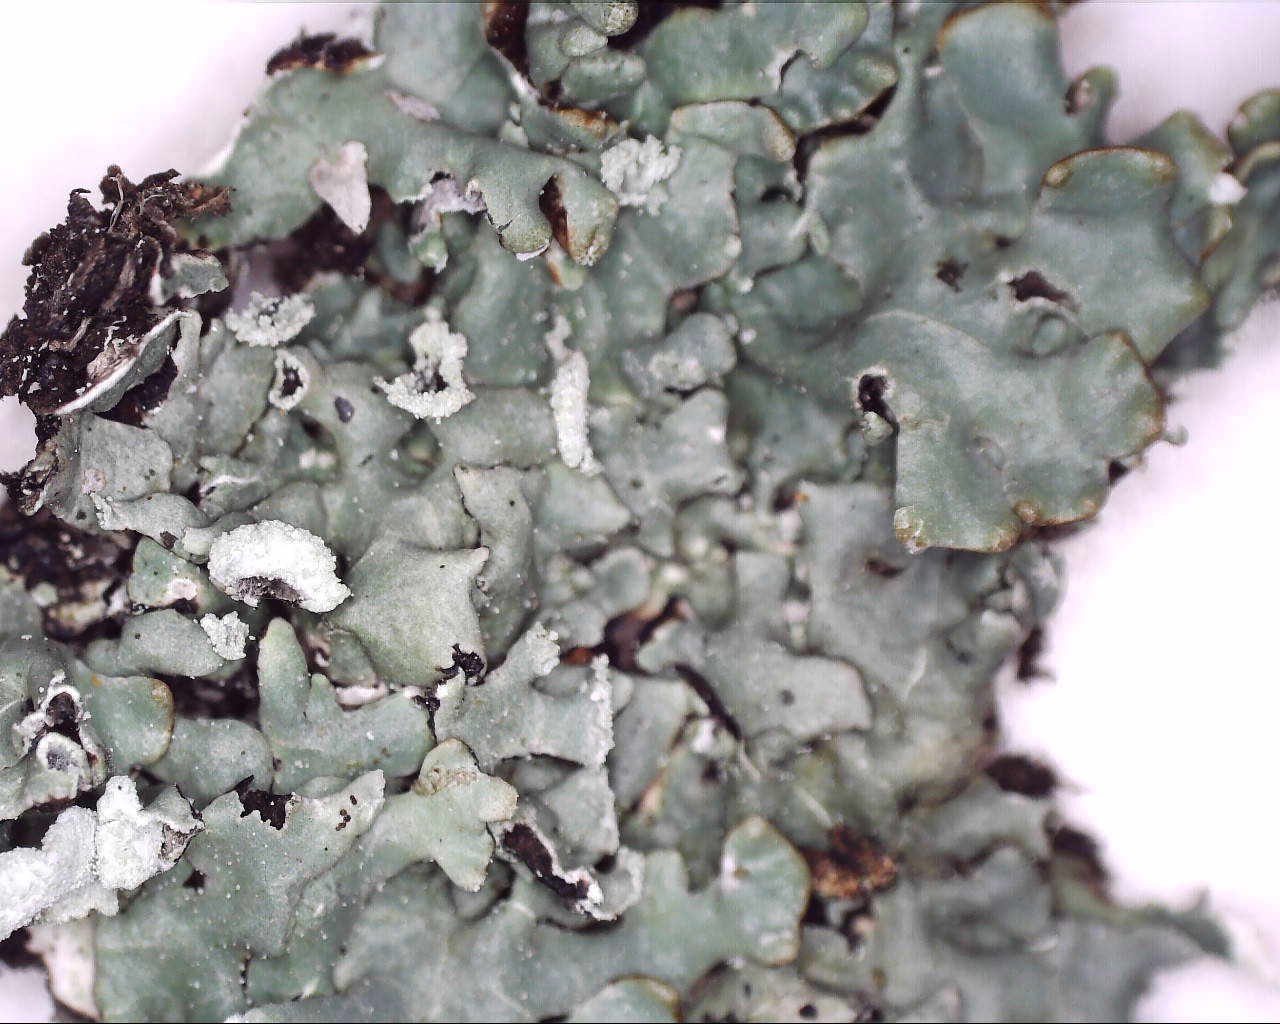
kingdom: Fungi
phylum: Ascomycota
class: Lecanoromycetes
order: Lecanorales
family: Parmeliaceae
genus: Hypogymnia
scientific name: Hypogymnia physodes
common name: almindelig kvistlav
